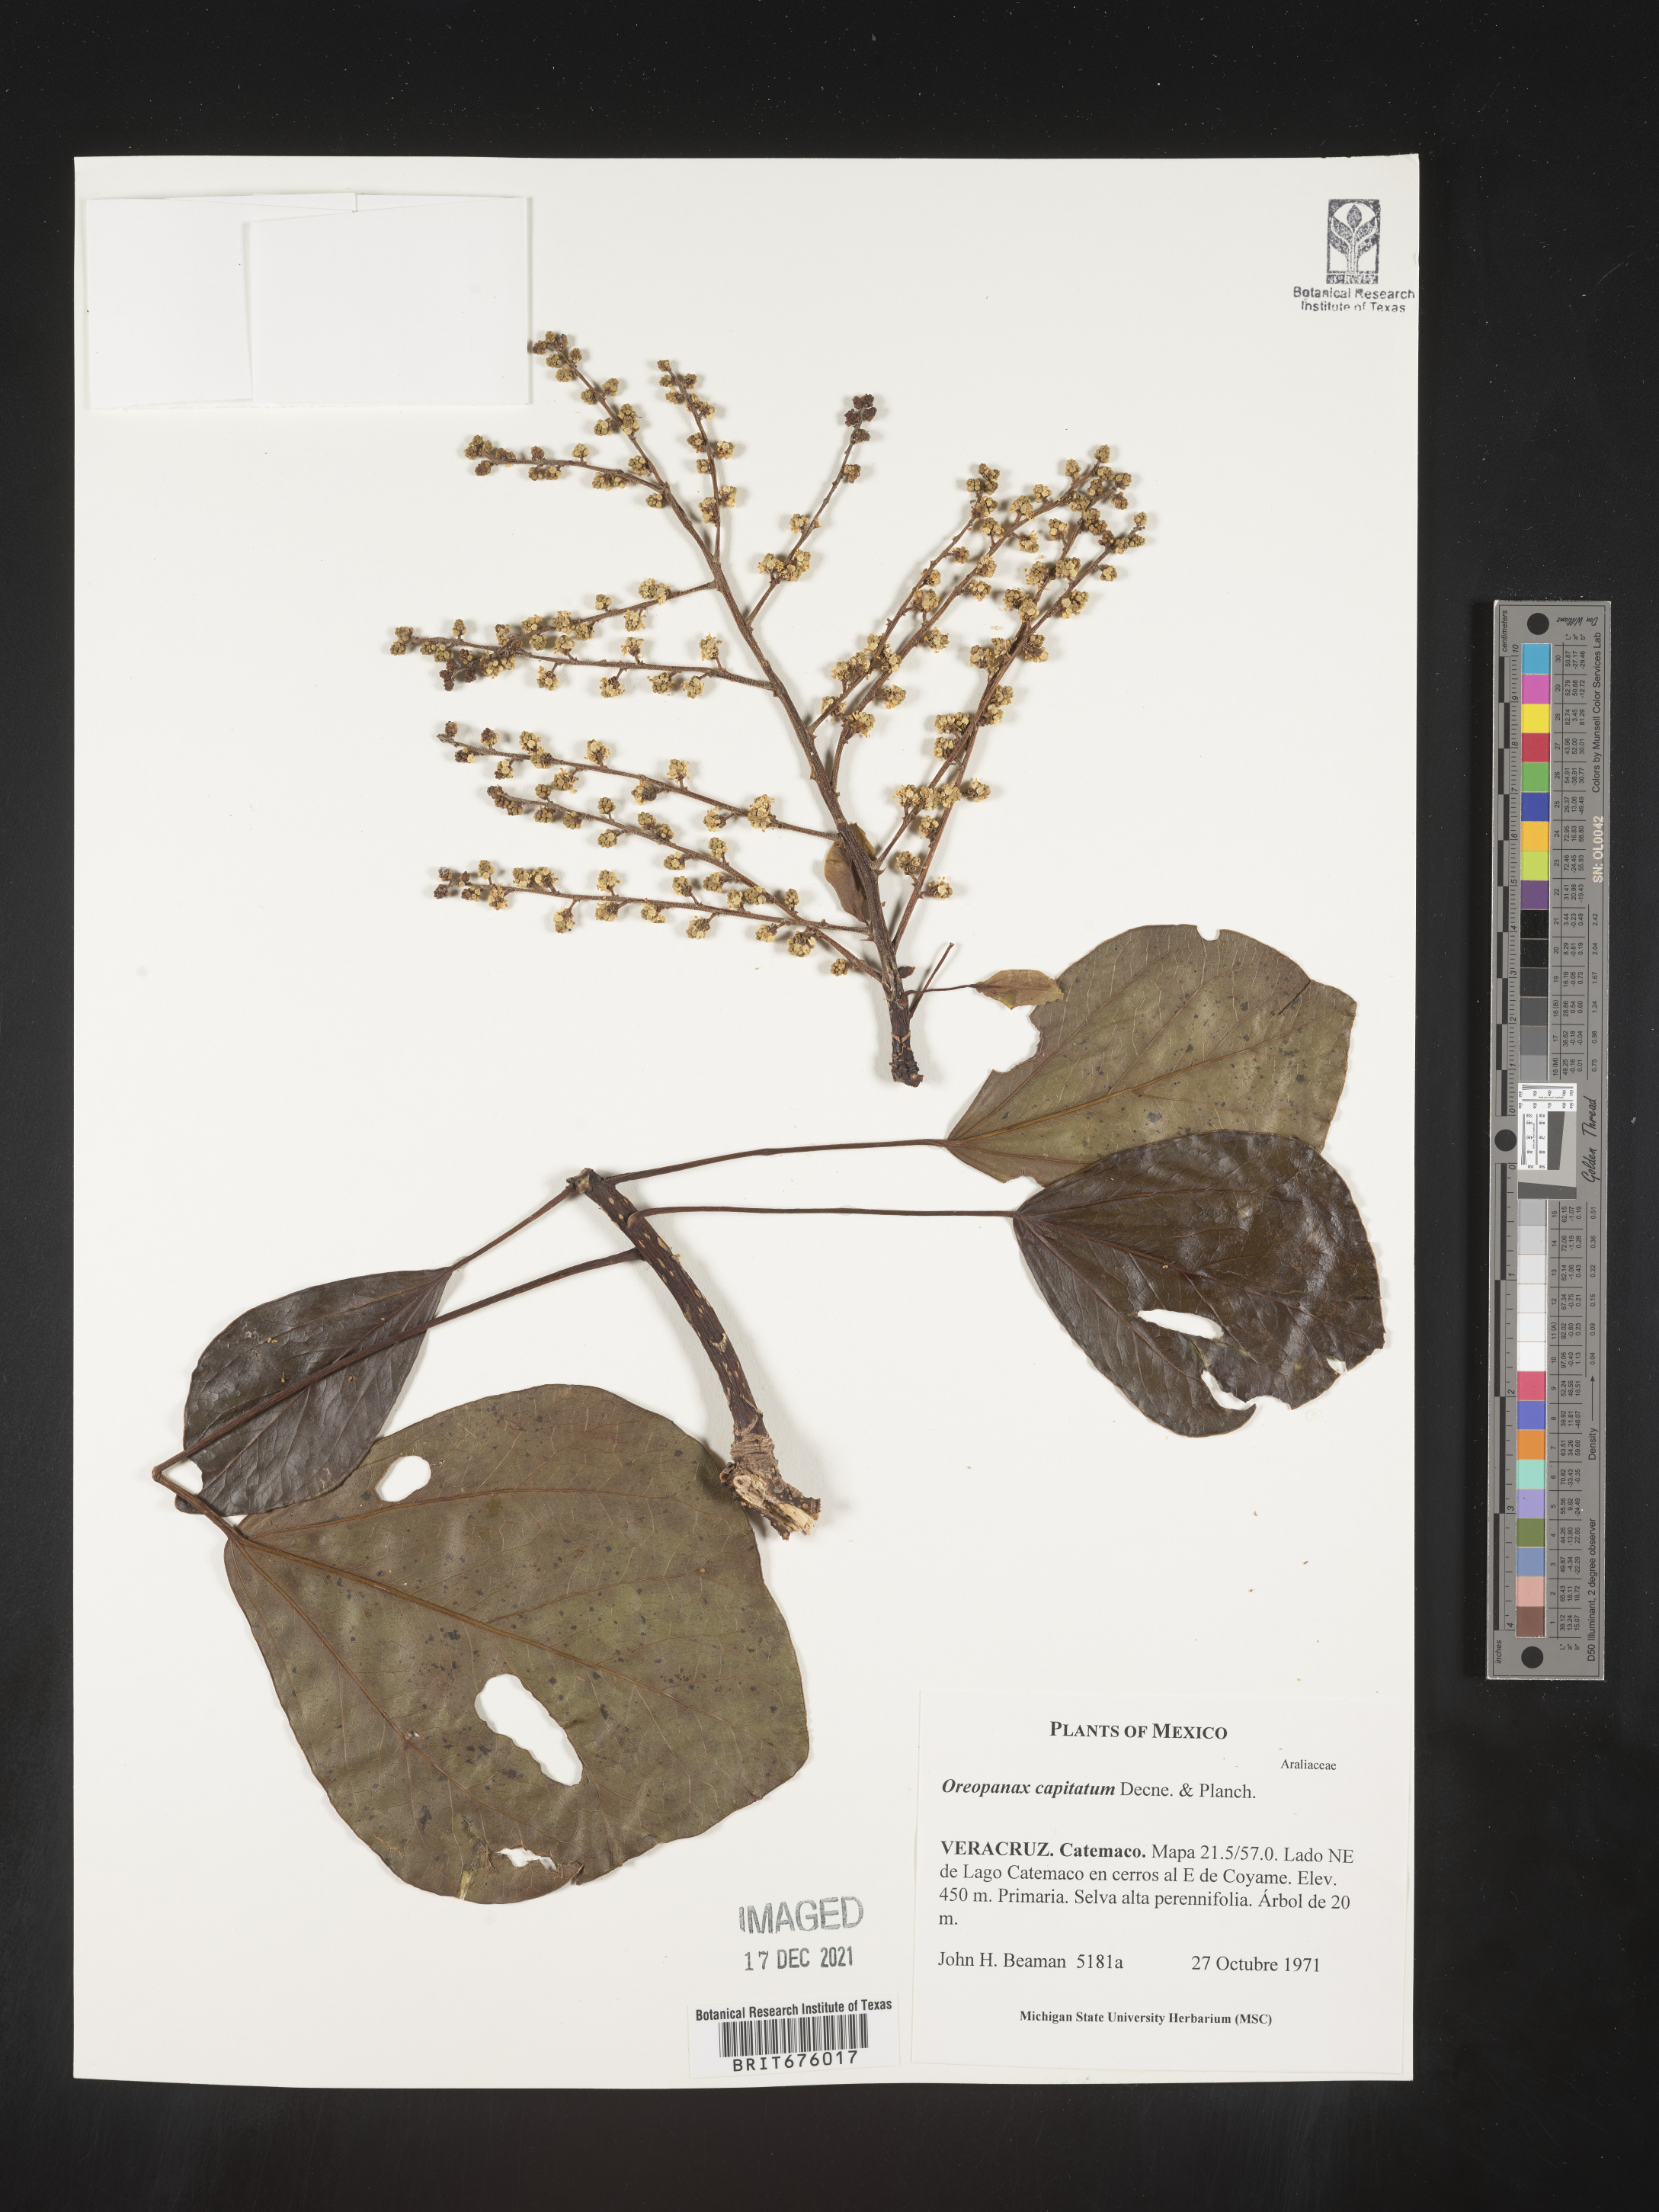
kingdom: Plantae
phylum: Tracheophyta
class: Magnoliopsida
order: Apiales
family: Araliaceae
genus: Oreopanax
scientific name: Oreopanax
